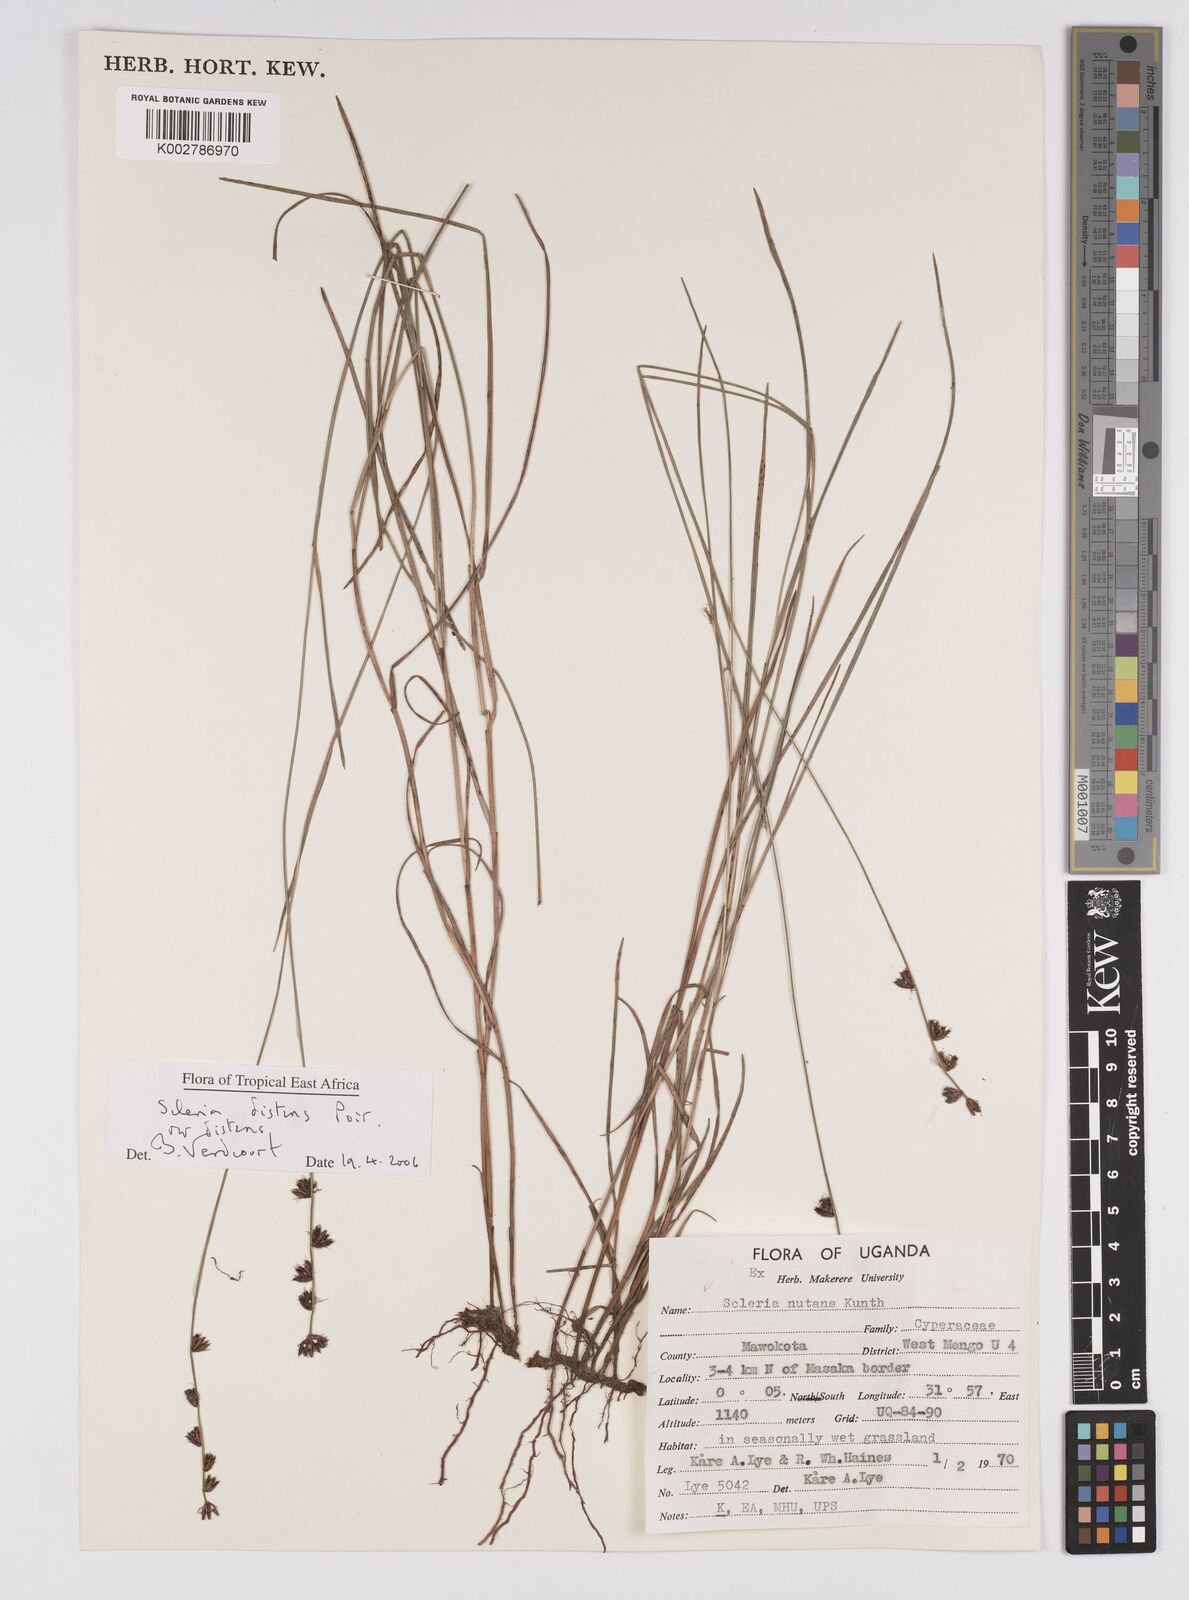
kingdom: Plantae
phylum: Tracheophyta
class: Liliopsida
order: Poales
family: Cyperaceae
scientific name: Cyperaceae
